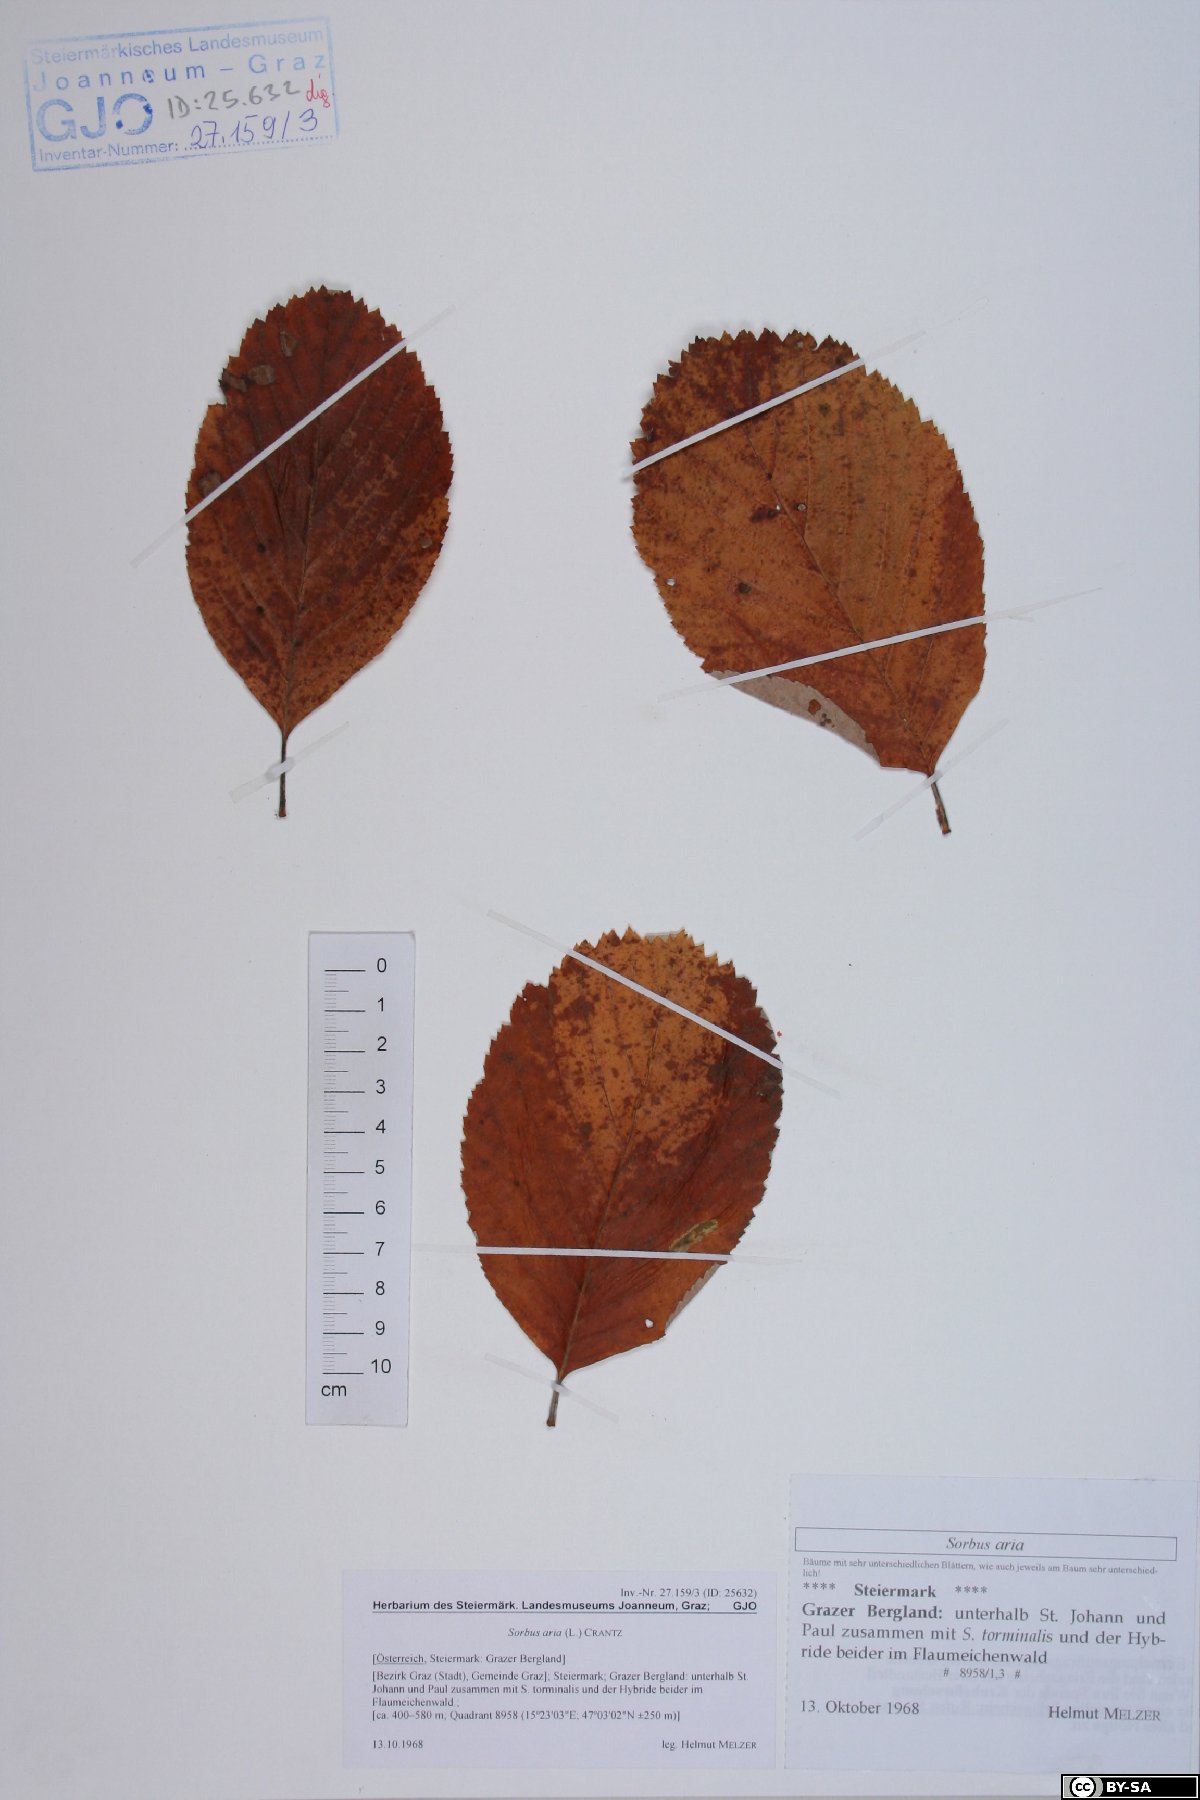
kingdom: Plantae
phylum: Tracheophyta
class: Magnoliopsida
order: Rosales
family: Rosaceae
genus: Aria
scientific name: Aria edulis
